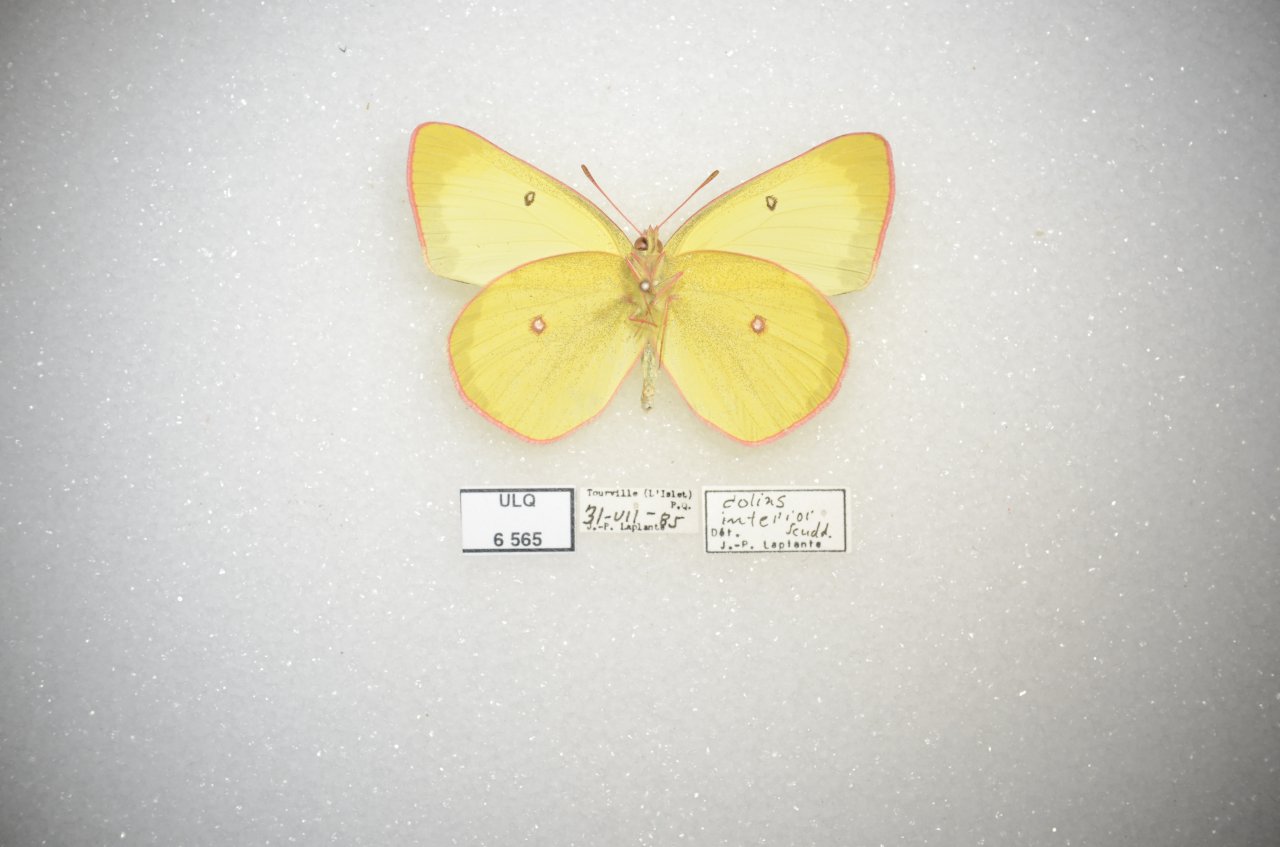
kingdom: Animalia
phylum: Arthropoda
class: Insecta
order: Lepidoptera
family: Pieridae
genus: Colias
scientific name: Colias interior
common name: Pink-edged Sulphur
